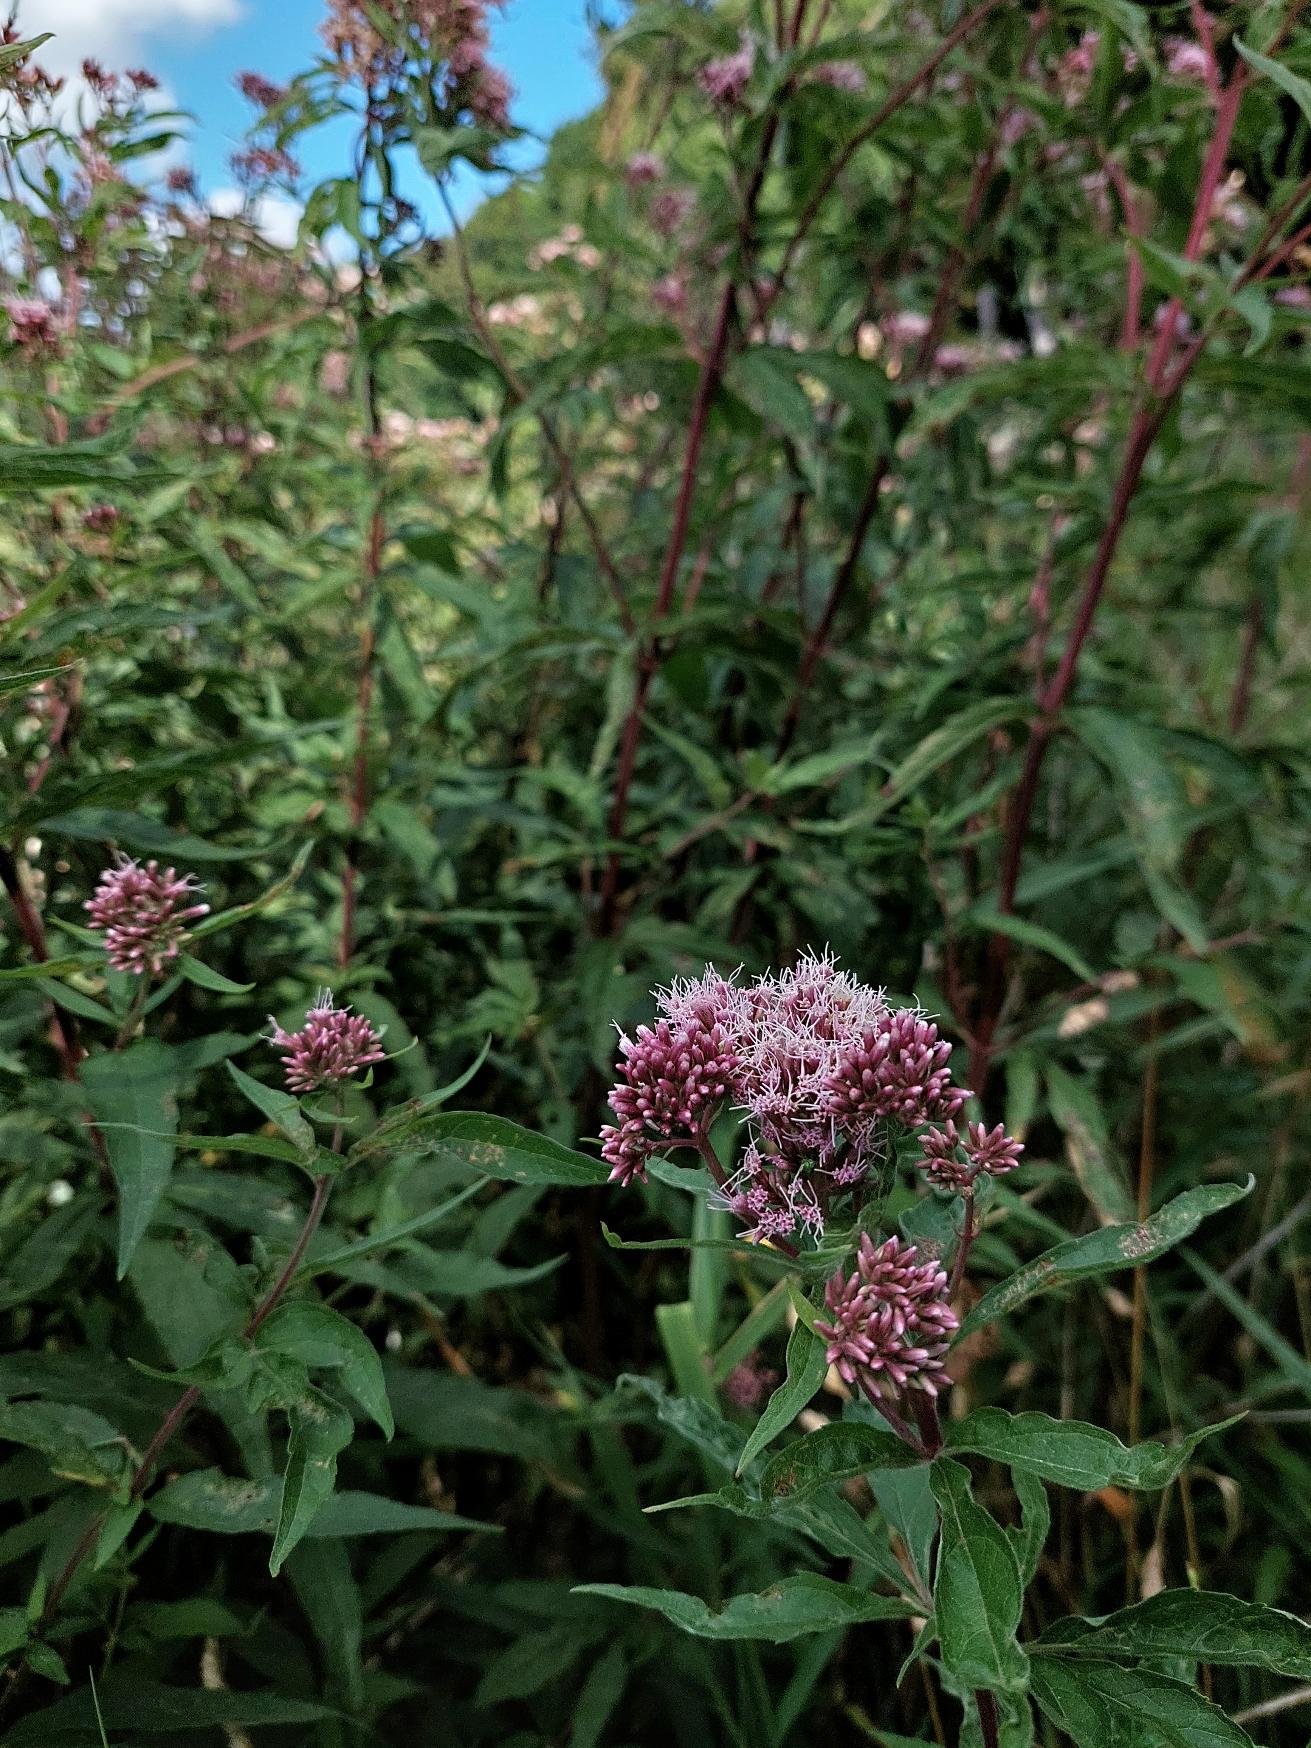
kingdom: Plantae
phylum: Tracheophyta
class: Magnoliopsida
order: Asterales
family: Asteraceae
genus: Eupatorium
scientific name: Eupatorium cannabinum
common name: Hjortetrøst
